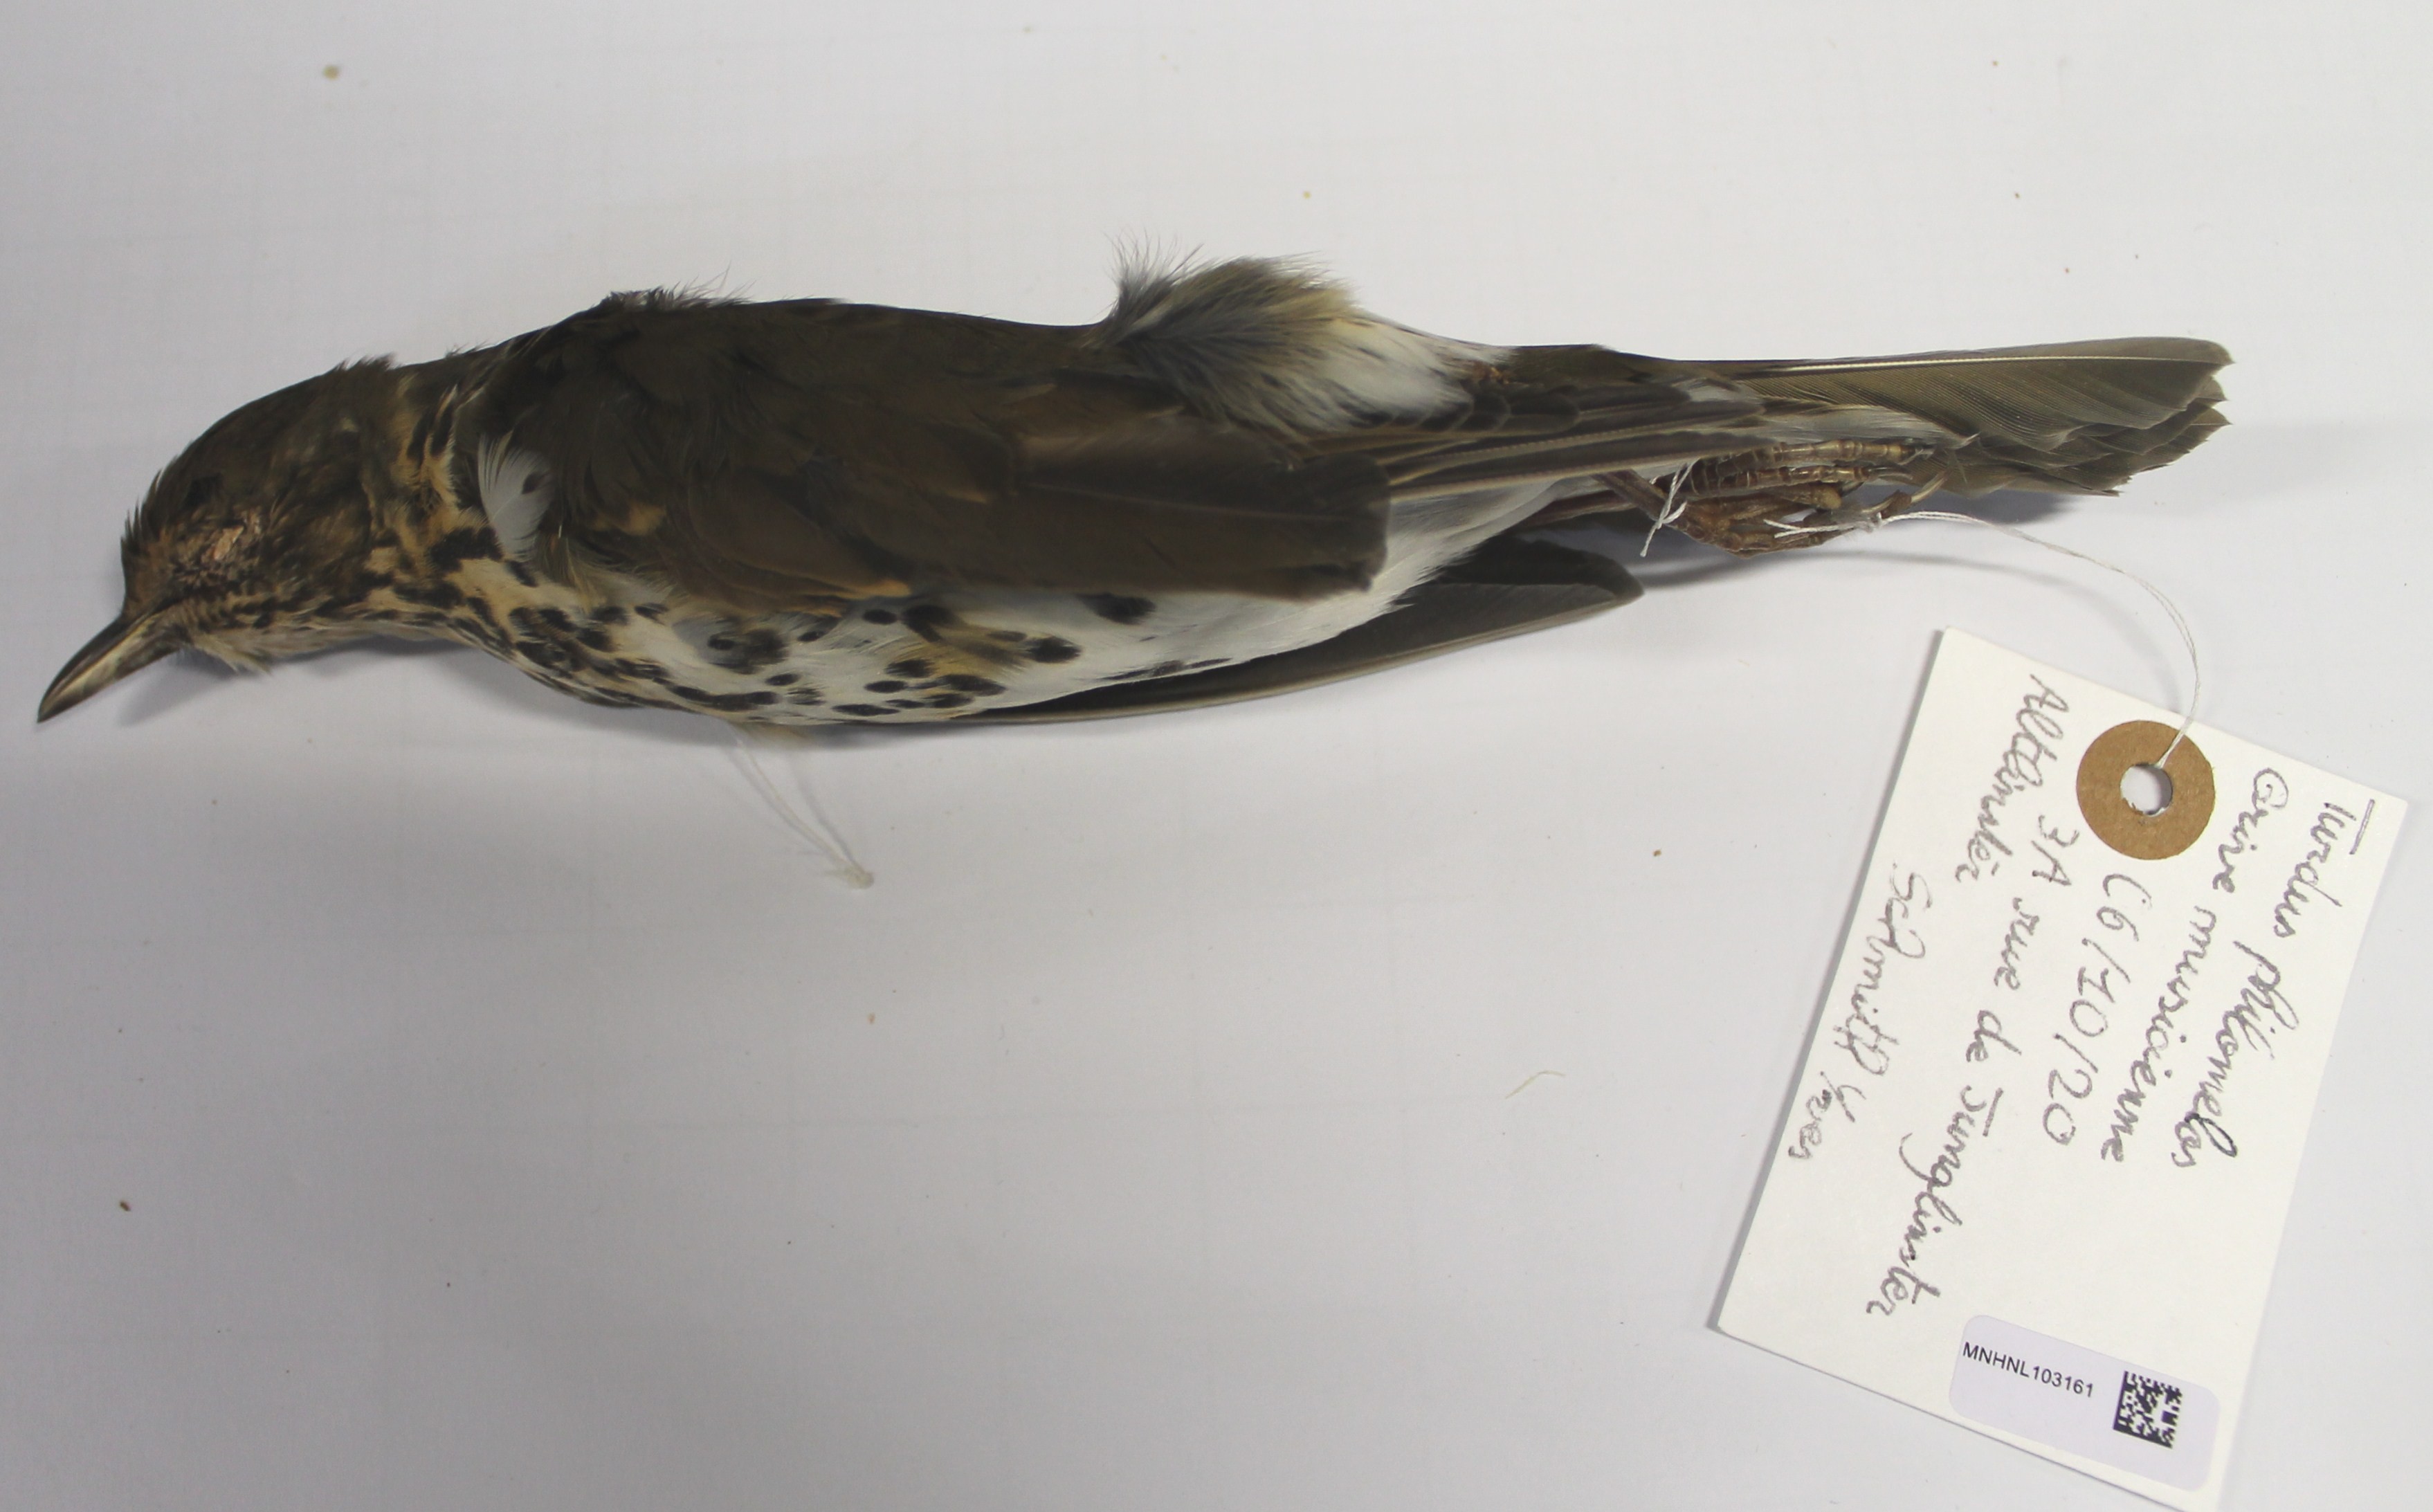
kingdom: Animalia
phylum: Chordata
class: Aves
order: Passeriformes
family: Turdidae
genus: Turdus
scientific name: Turdus philomelos
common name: Song thrush
